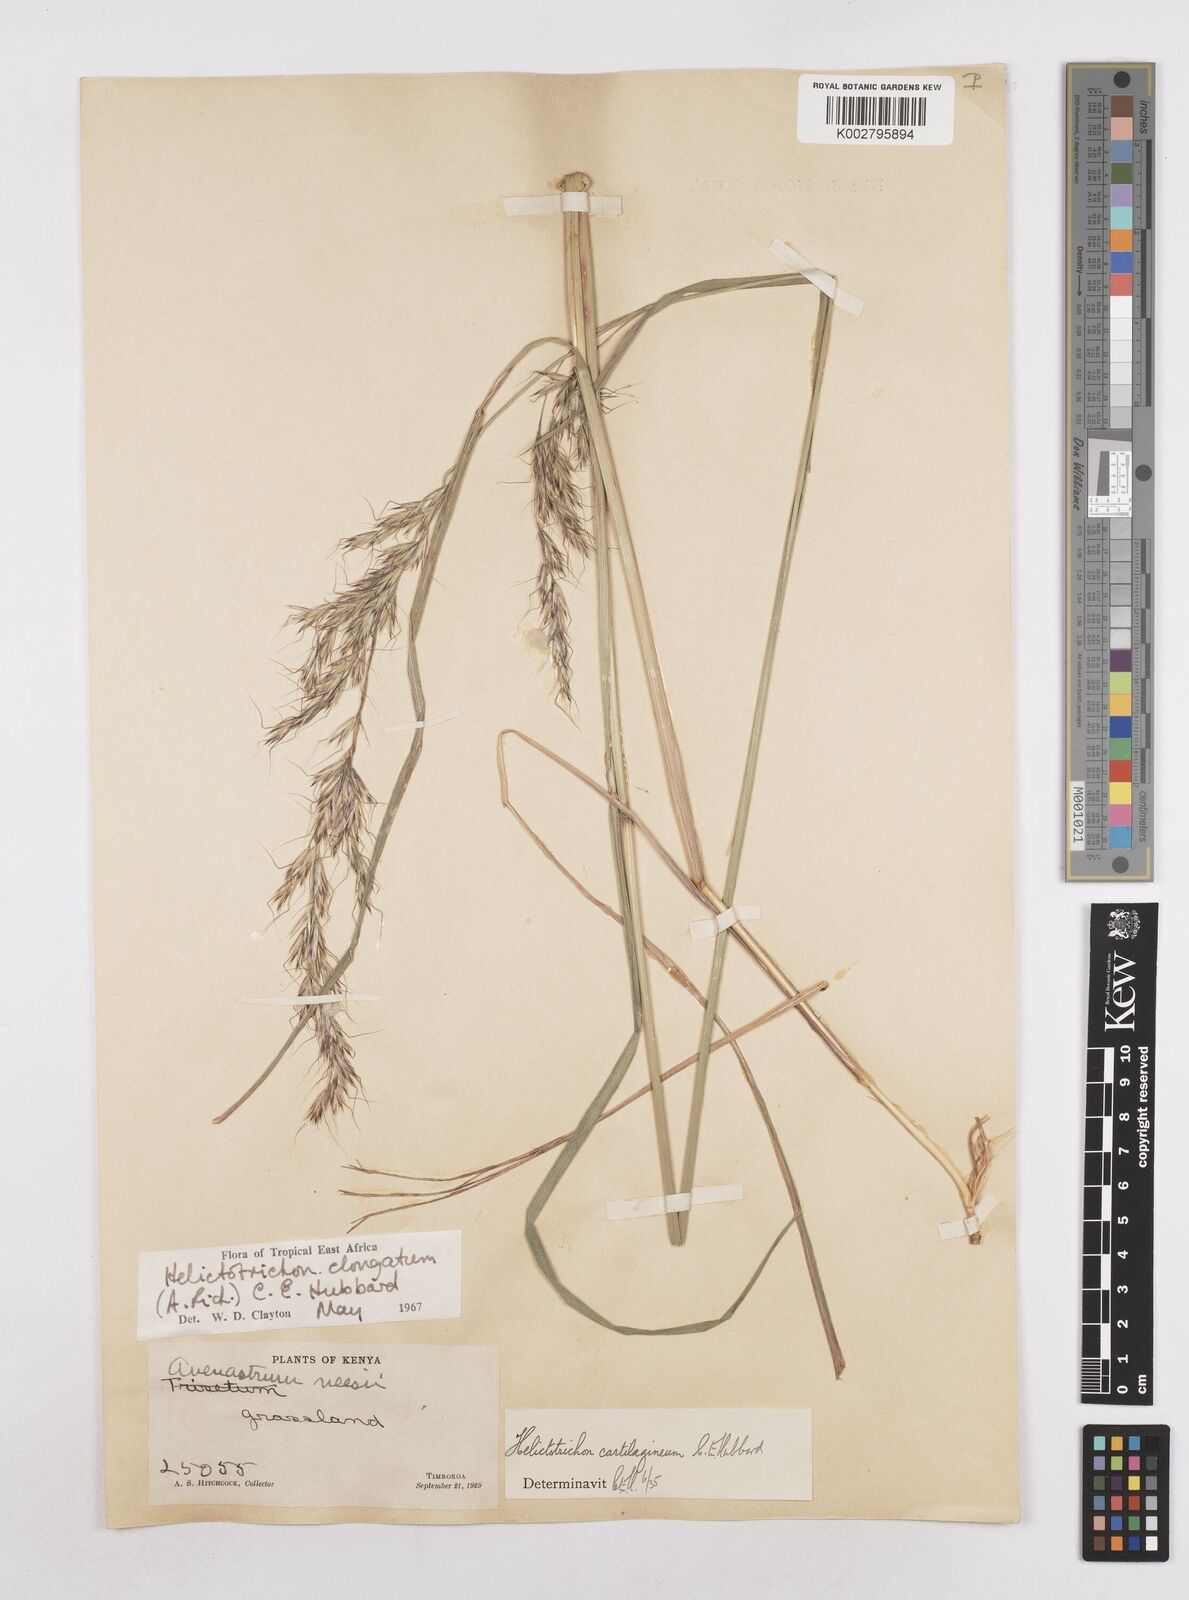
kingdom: Plantae
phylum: Tracheophyta
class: Liliopsida
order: Poales
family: Poaceae
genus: Trisetopsis
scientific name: Trisetopsis elongata
